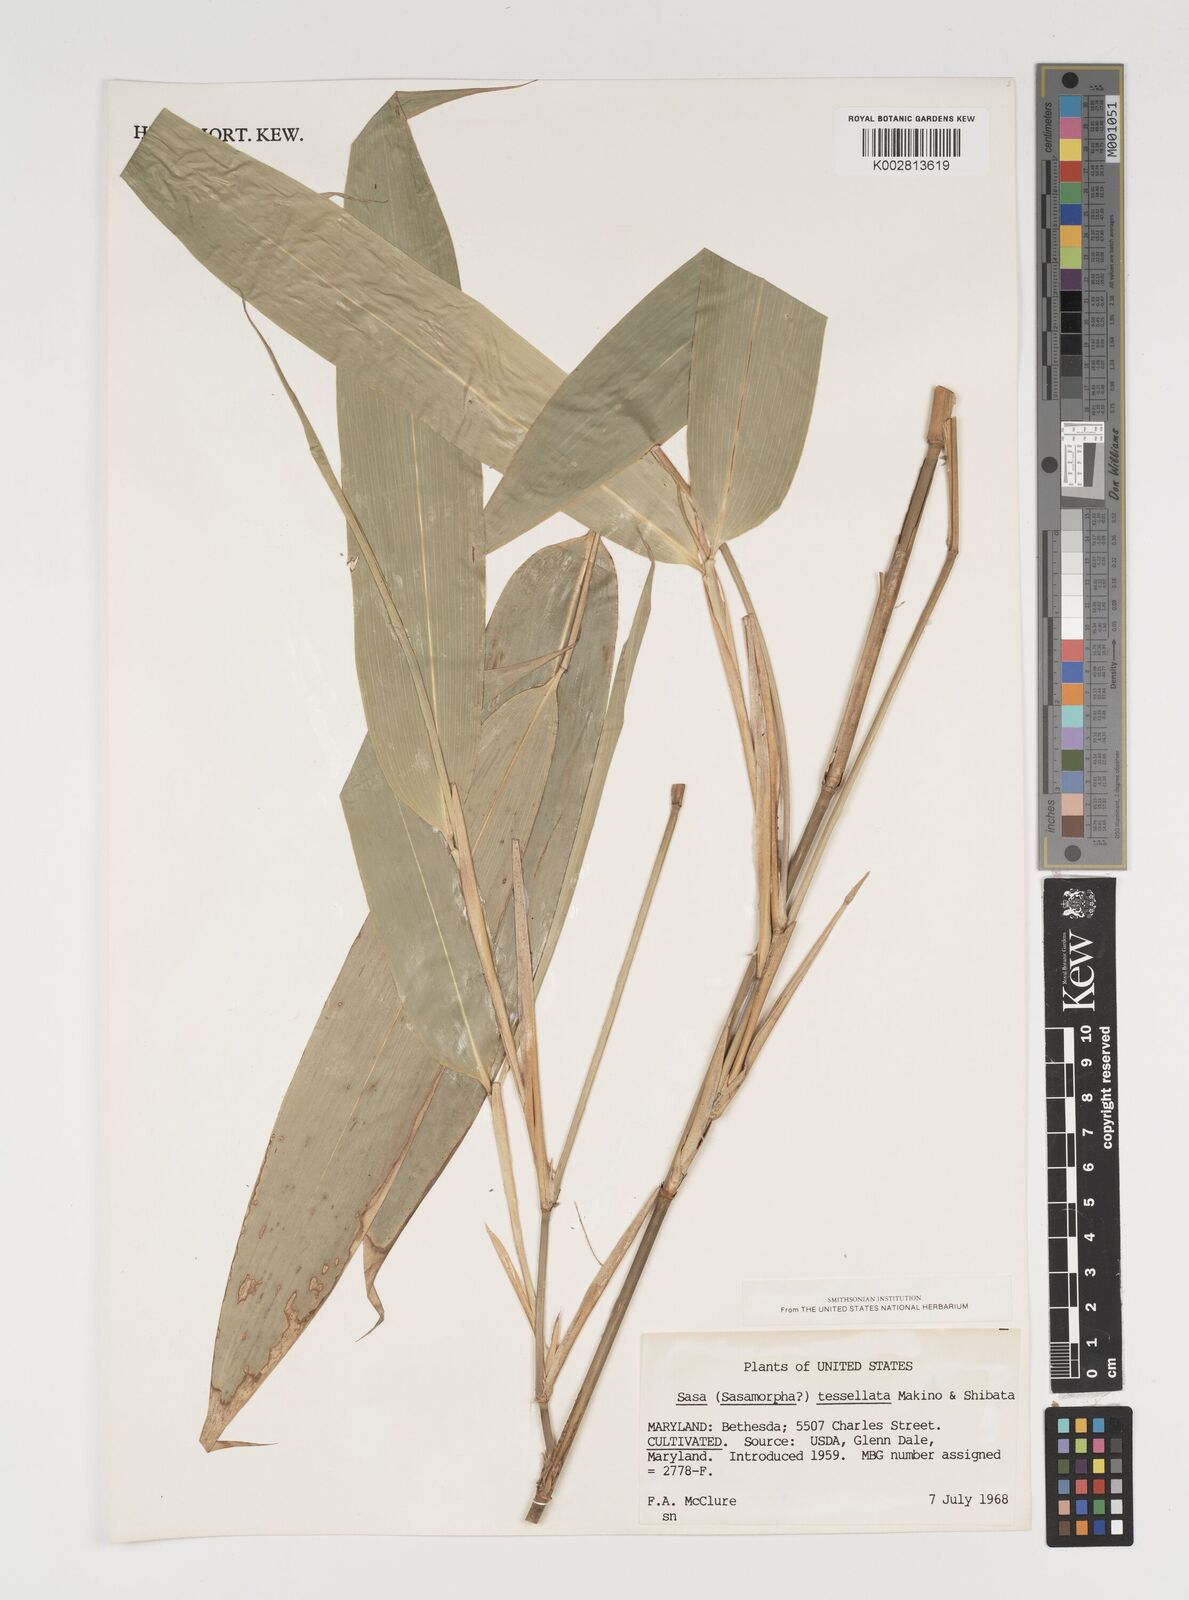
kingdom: Plantae
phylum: Tracheophyta
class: Liliopsida
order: Poales
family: Poaceae
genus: Indocalamus
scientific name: Indocalamus tessellatus
